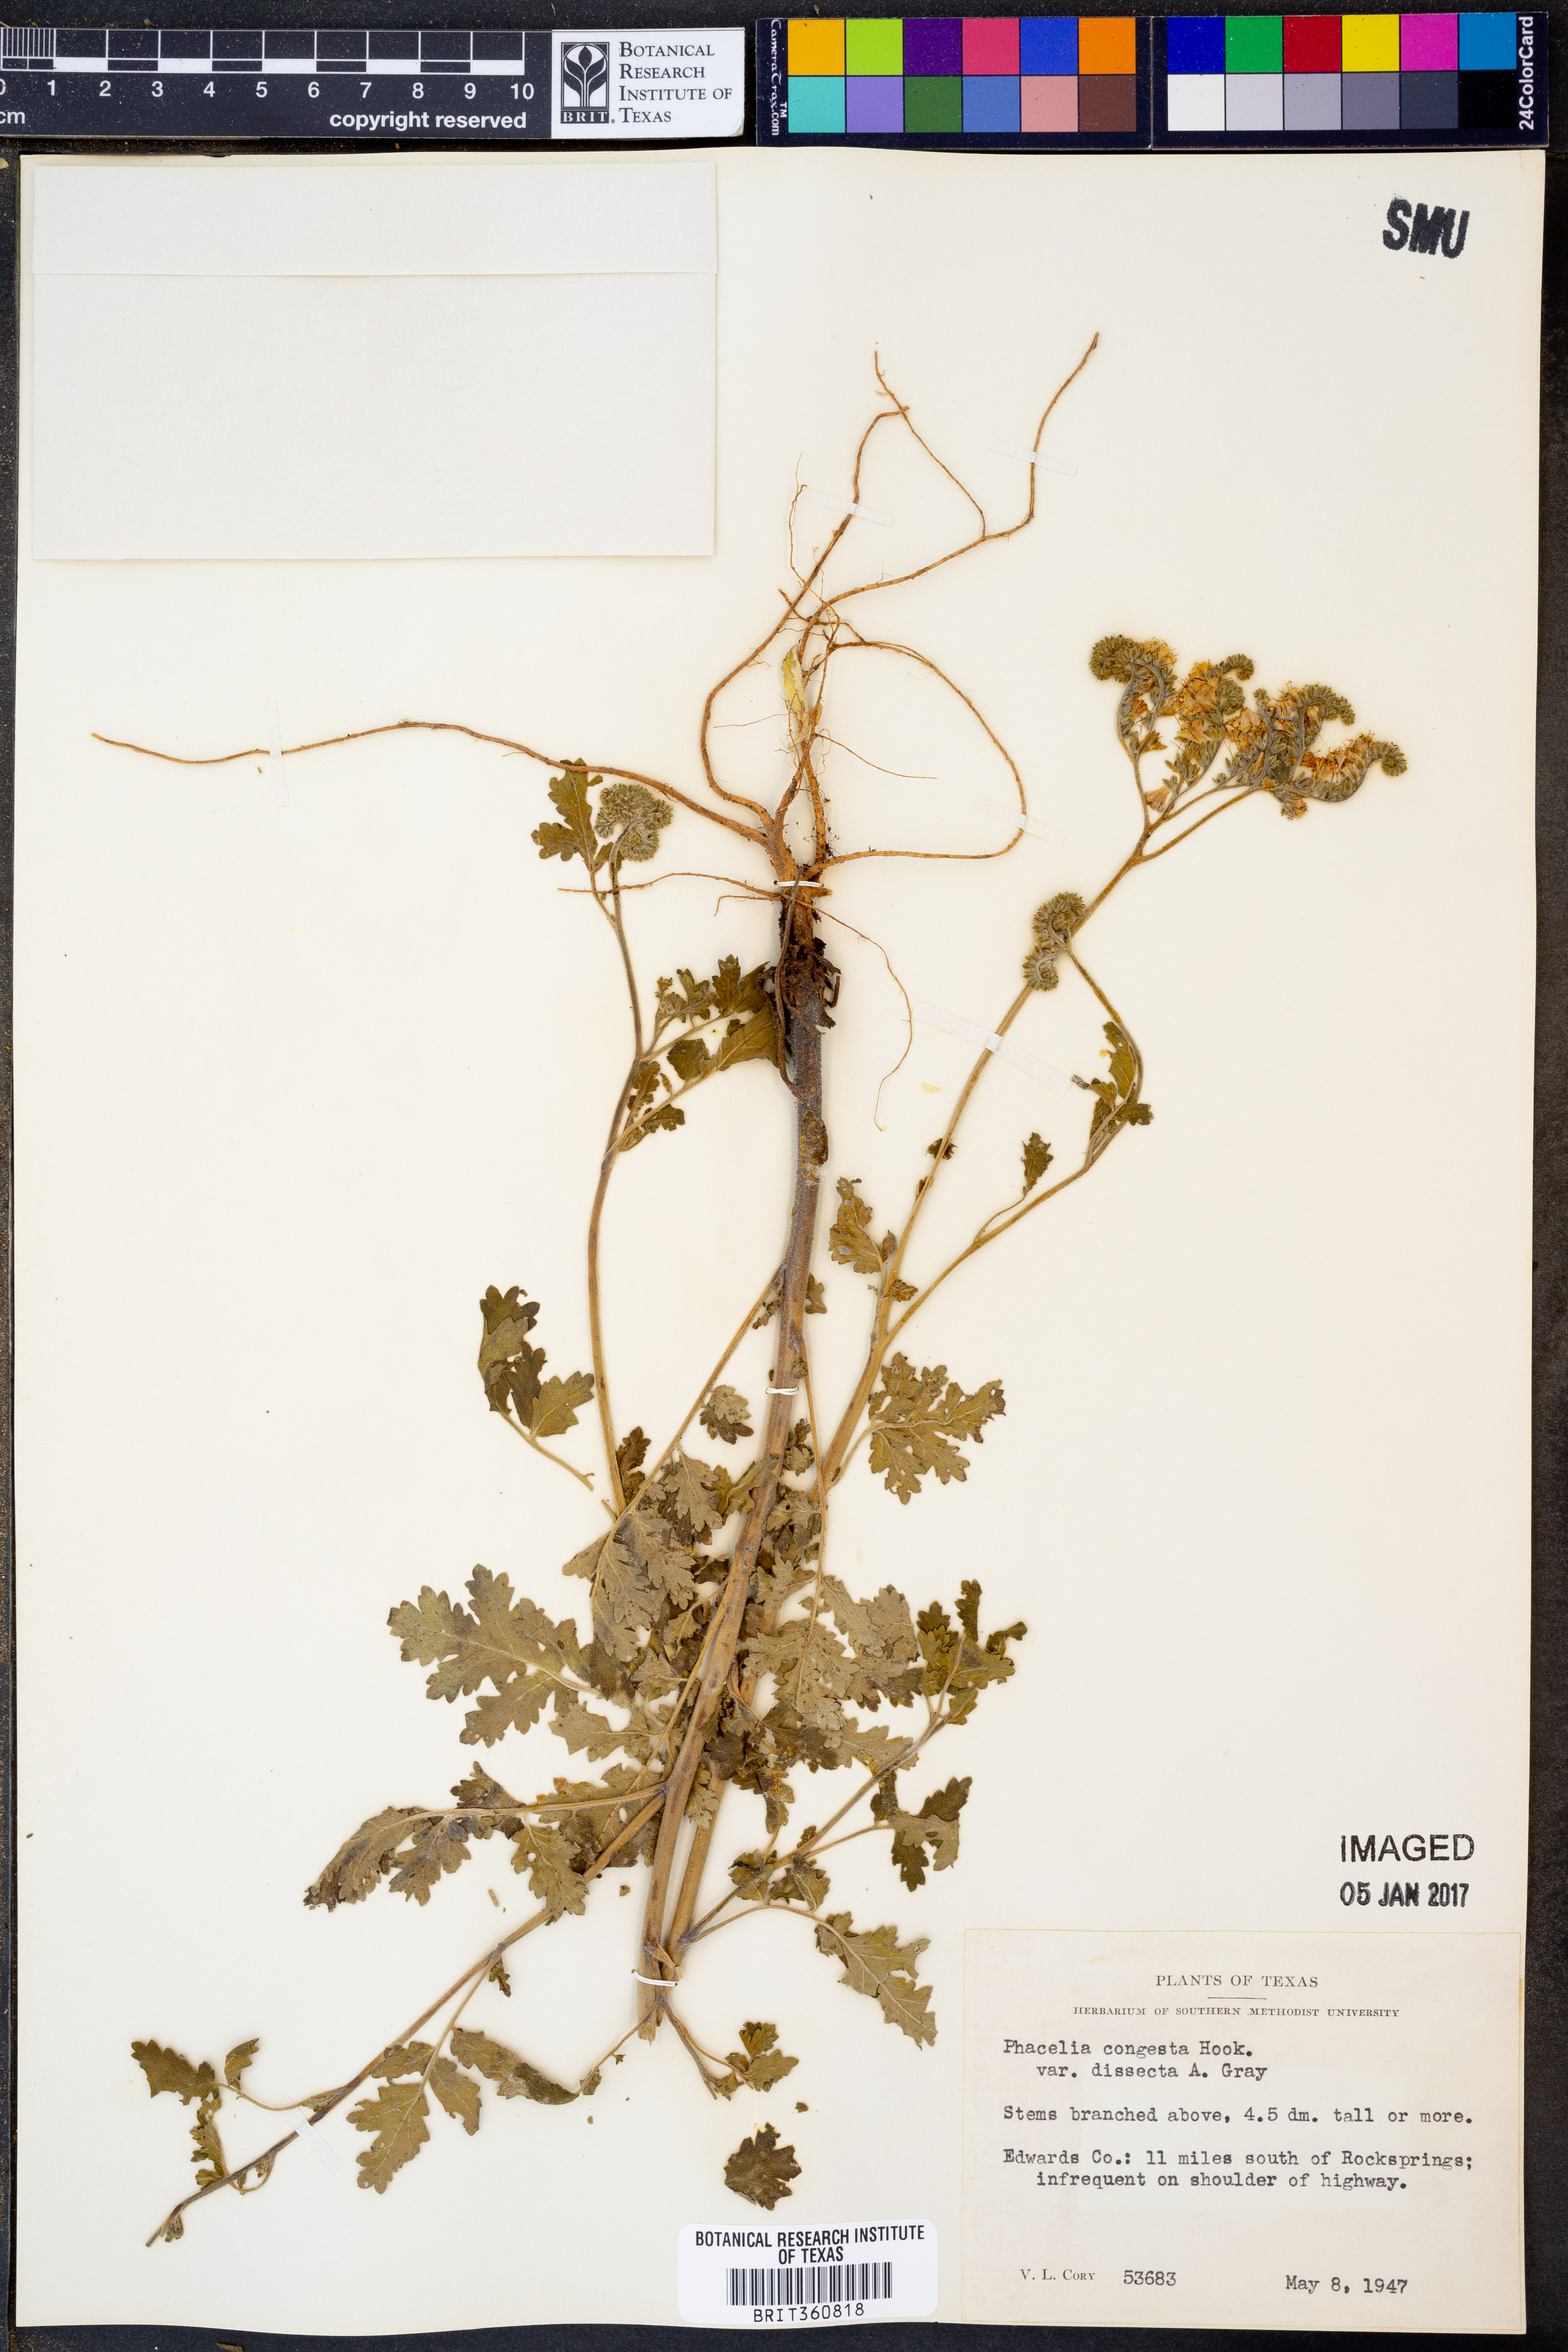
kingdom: Plantae
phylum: Tracheophyta
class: Magnoliopsida
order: Boraginales
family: Hydrophyllaceae
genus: Phacelia
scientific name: Phacelia congesta
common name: Blue curls
